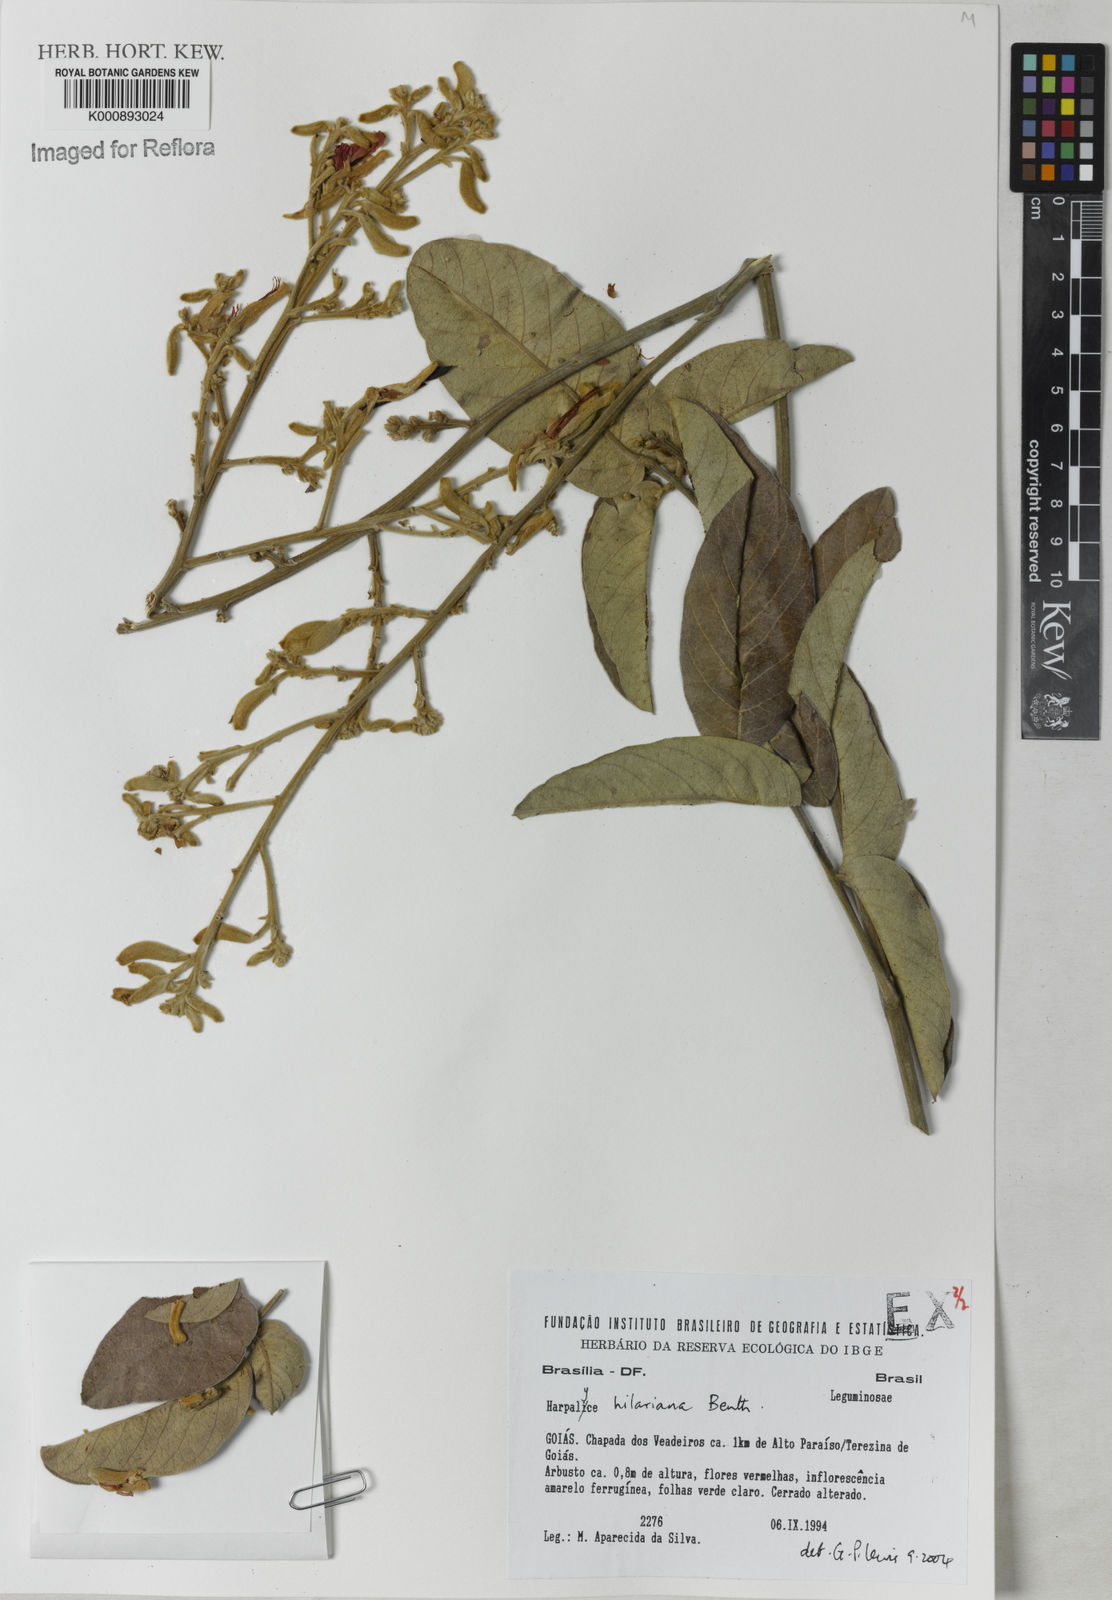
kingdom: Plantae
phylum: Tracheophyta
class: Magnoliopsida
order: Fabales
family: Fabaceae
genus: Harpalyce
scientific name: Harpalyce hilariana
